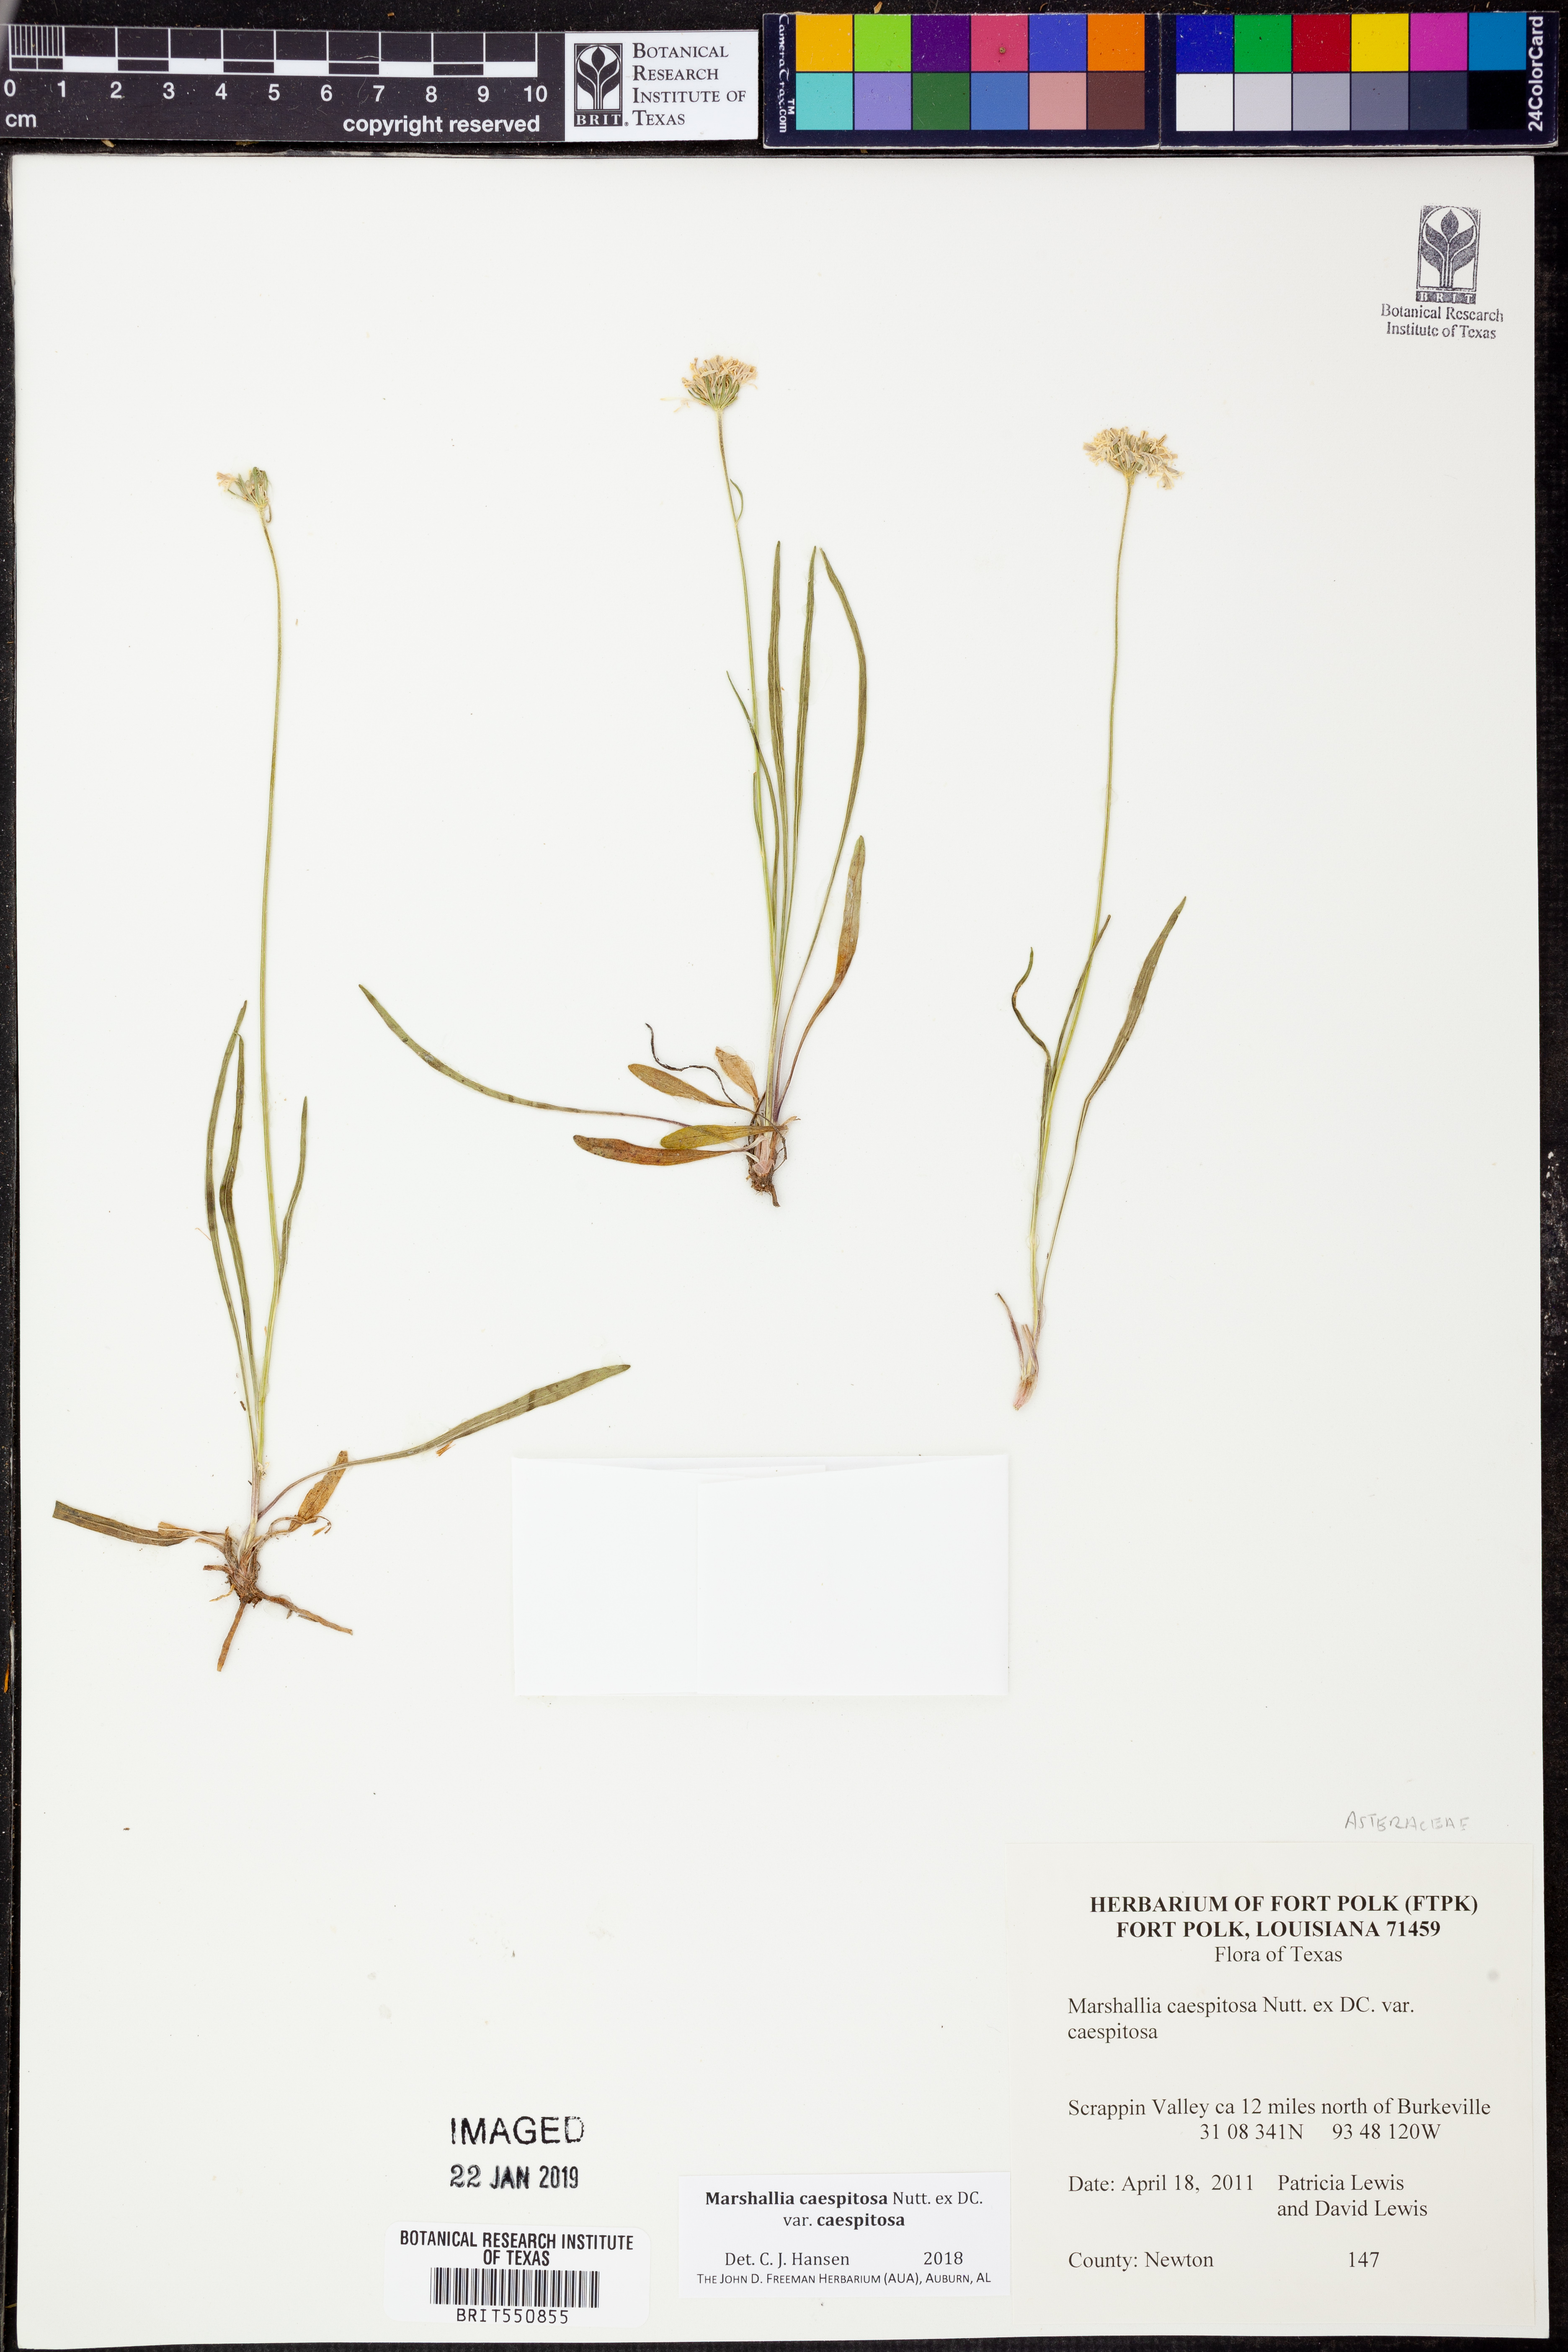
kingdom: Plantae
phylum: Tracheophyta
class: Magnoliopsida
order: Asterales
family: Asteraceae
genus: Marshallia
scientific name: Marshallia caespitosa
